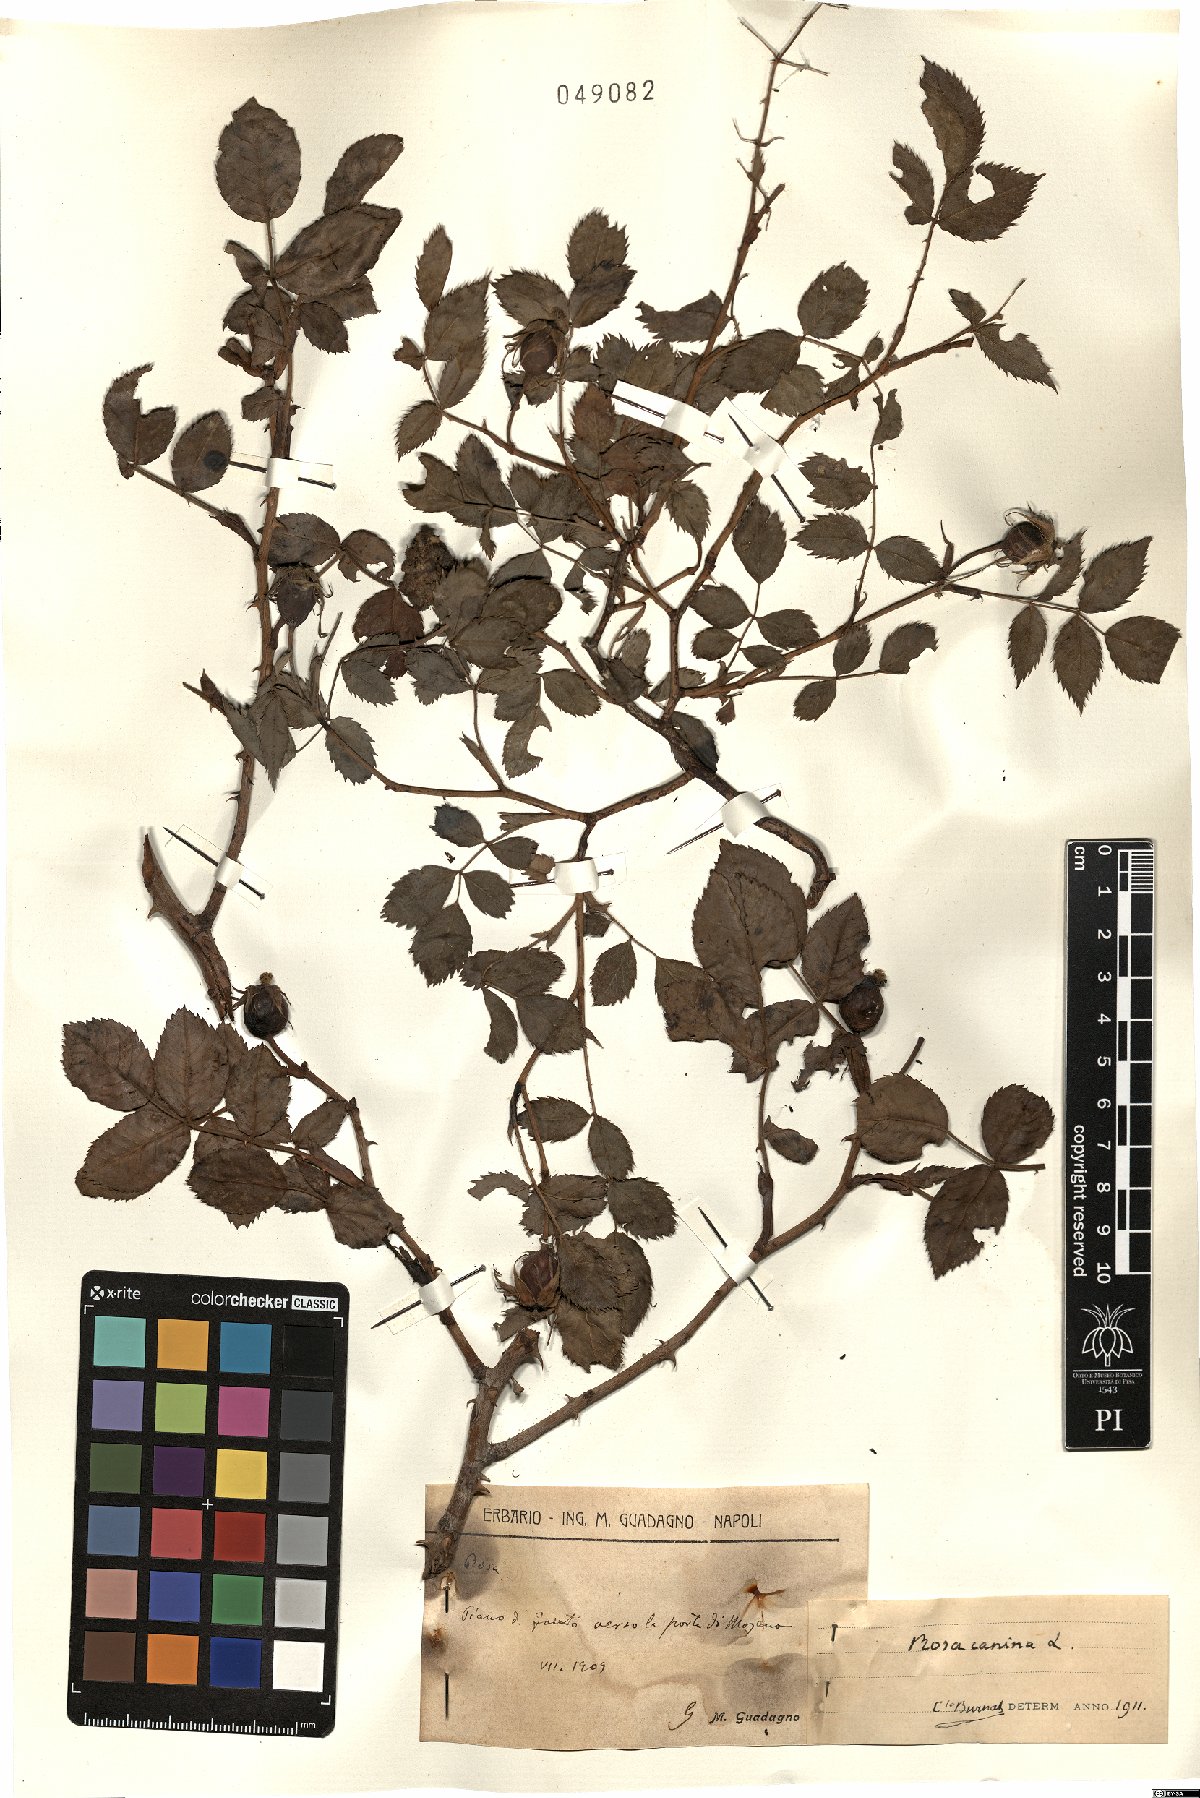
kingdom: Plantae
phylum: Tracheophyta
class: Magnoliopsida
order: Rosales
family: Rosaceae
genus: Rosa
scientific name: Rosa canina
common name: Dog rose
